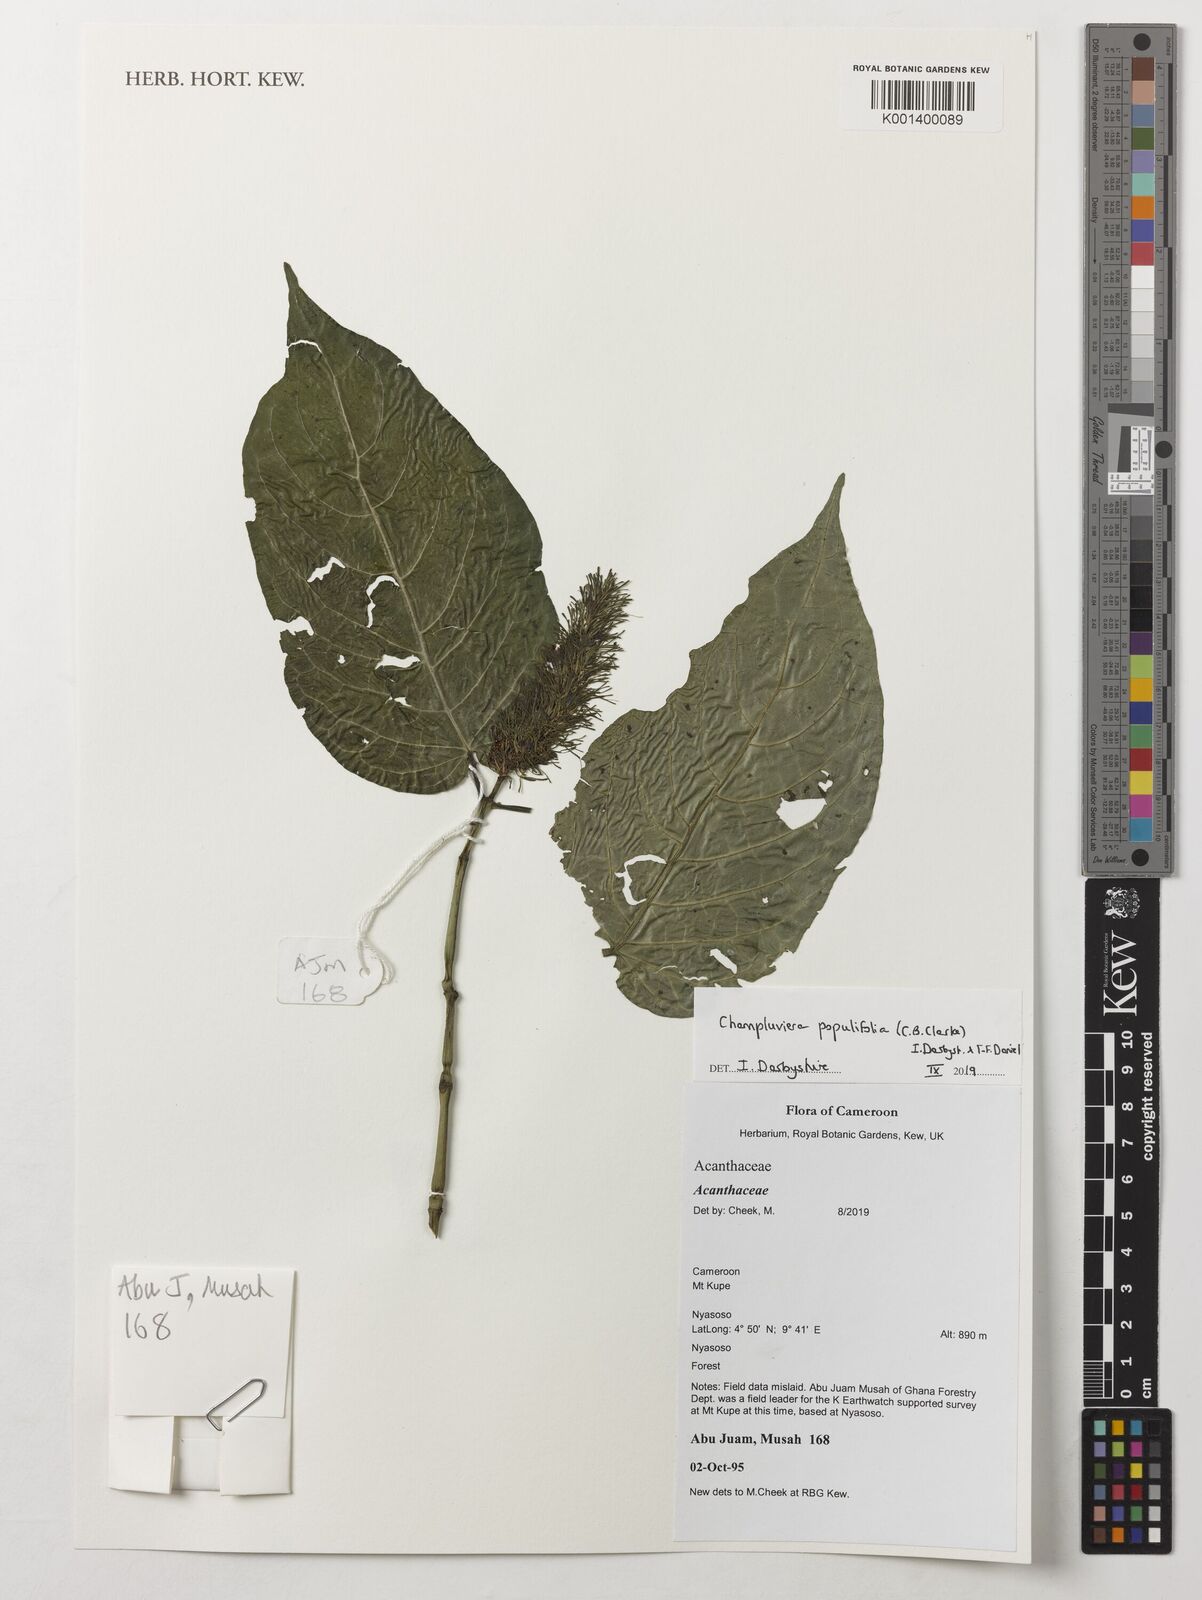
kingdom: Plantae
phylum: Tracheophyta
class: Magnoliopsida
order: Lamiales
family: Acanthaceae
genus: Champluviera
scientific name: Champluviera populifolia
